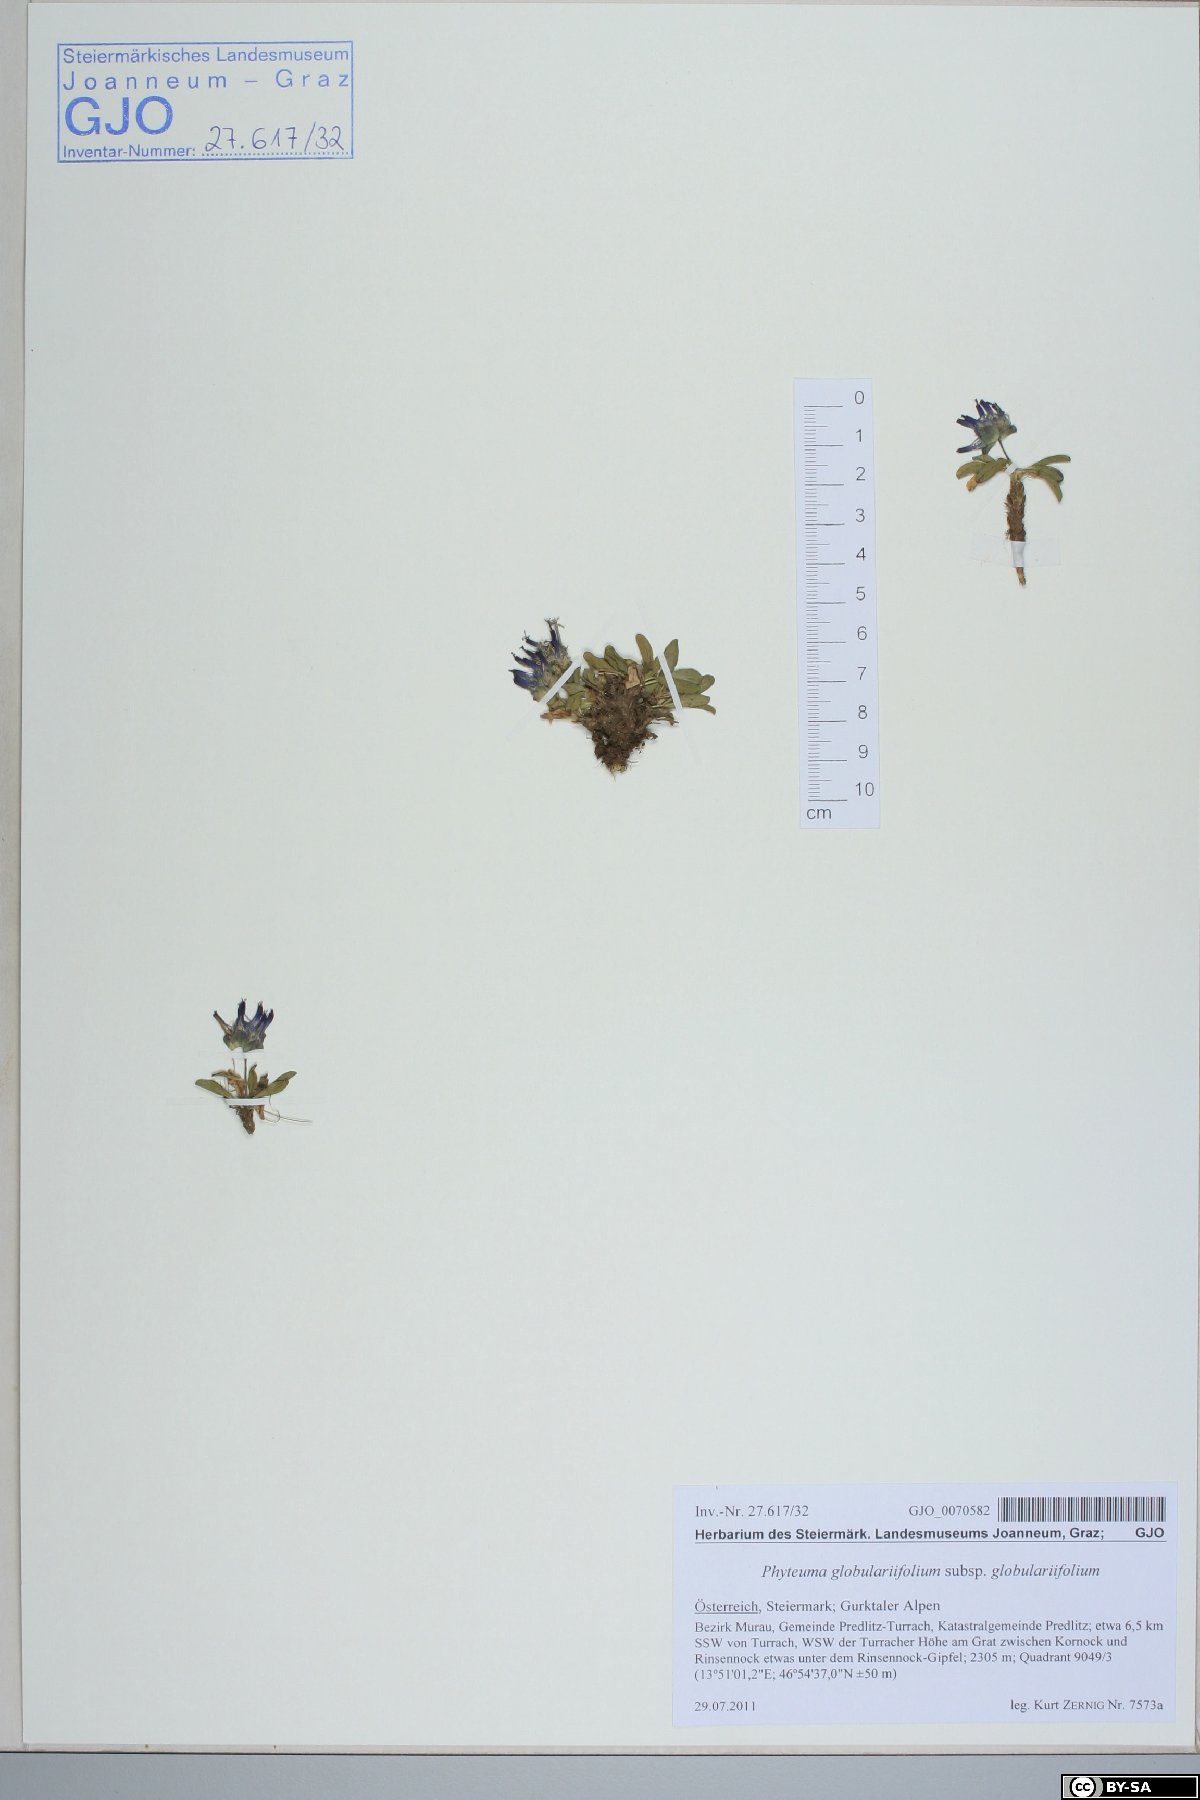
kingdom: Plantae
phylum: Tracheophyta
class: Magnoliopsida
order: Asterales
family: Campanulaceae
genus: Phyteuma
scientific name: Phyteuma globulariifolium
